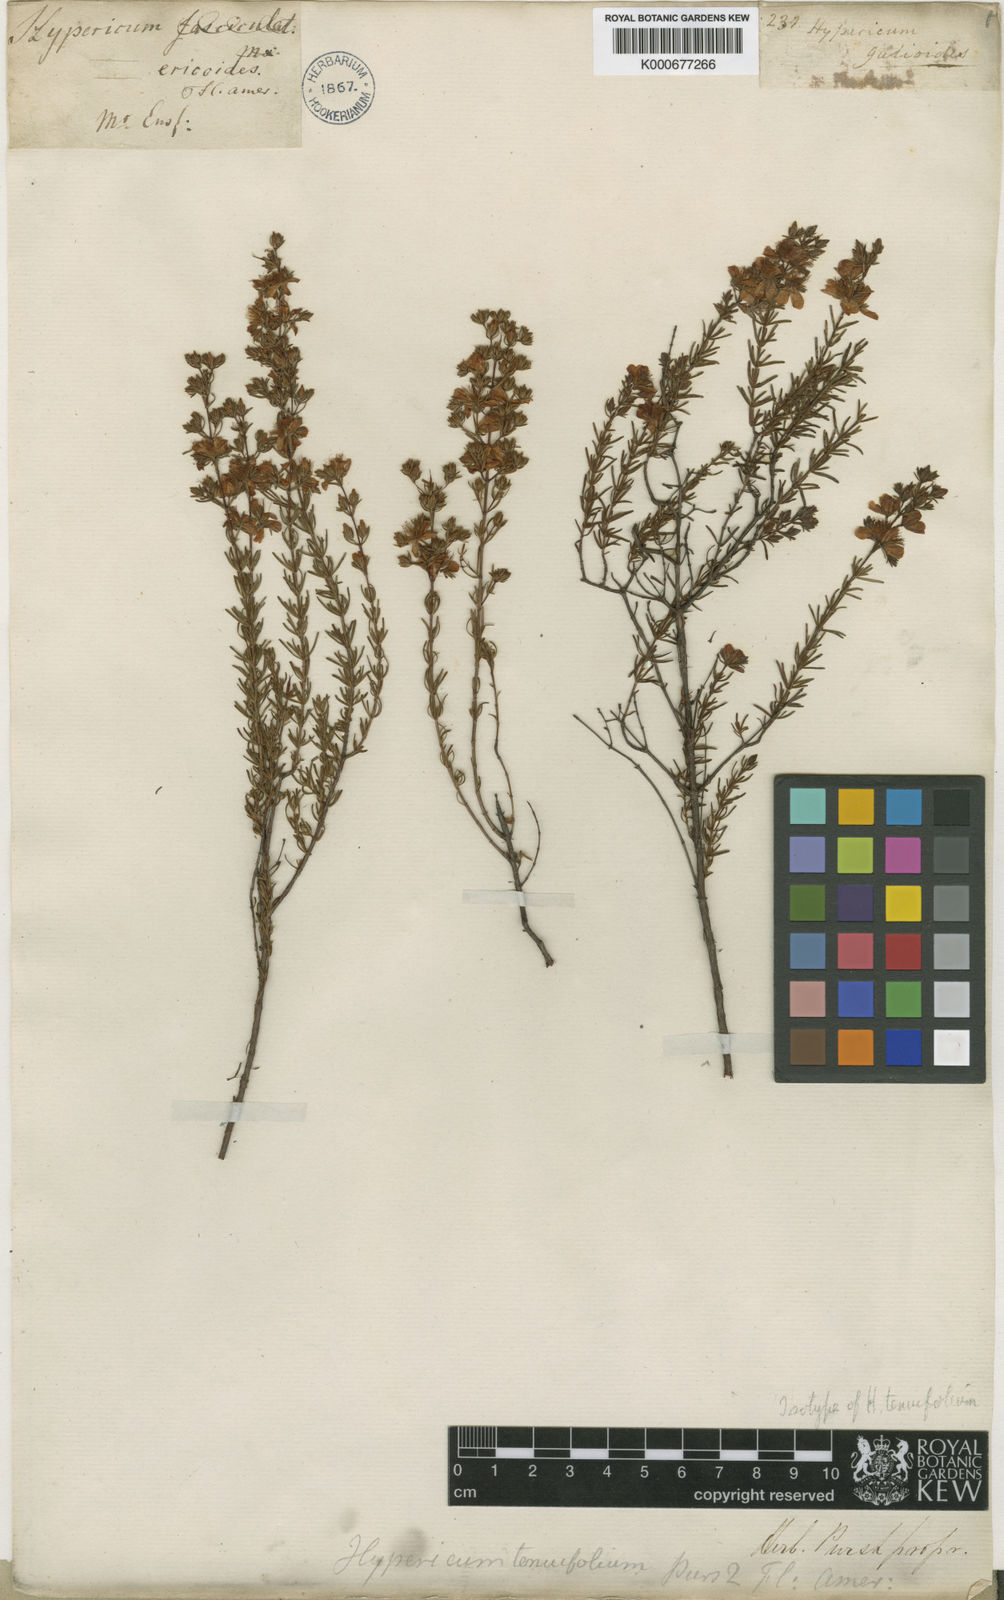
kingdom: Plantae
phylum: Tracheophyta
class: Magnoliopsida
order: Malpighiales
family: Hypericaceae
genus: Hypericum
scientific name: Hypericum piriai
